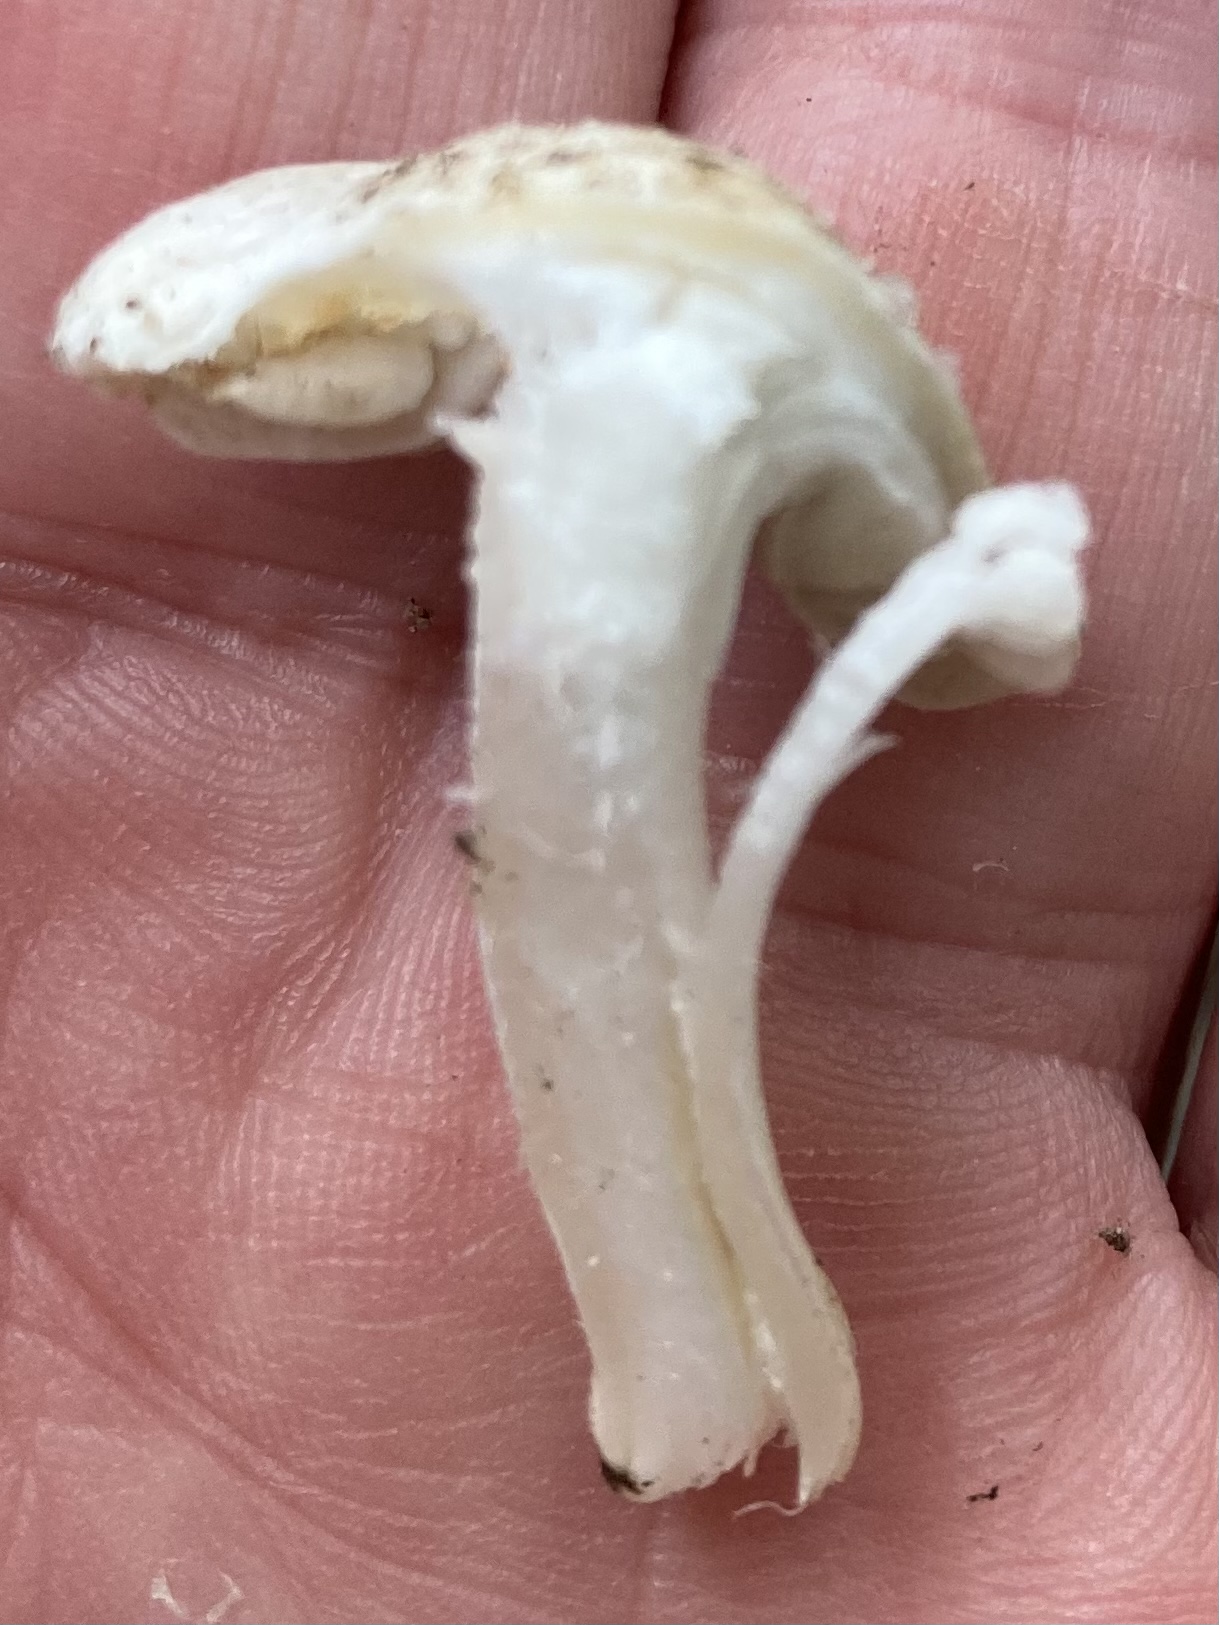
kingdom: Fungi
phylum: Basidiomycota
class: Agaricomycetes
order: Agaricales
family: Inocybaceae
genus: Inocybe
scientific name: Inocybe
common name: trævlhat
